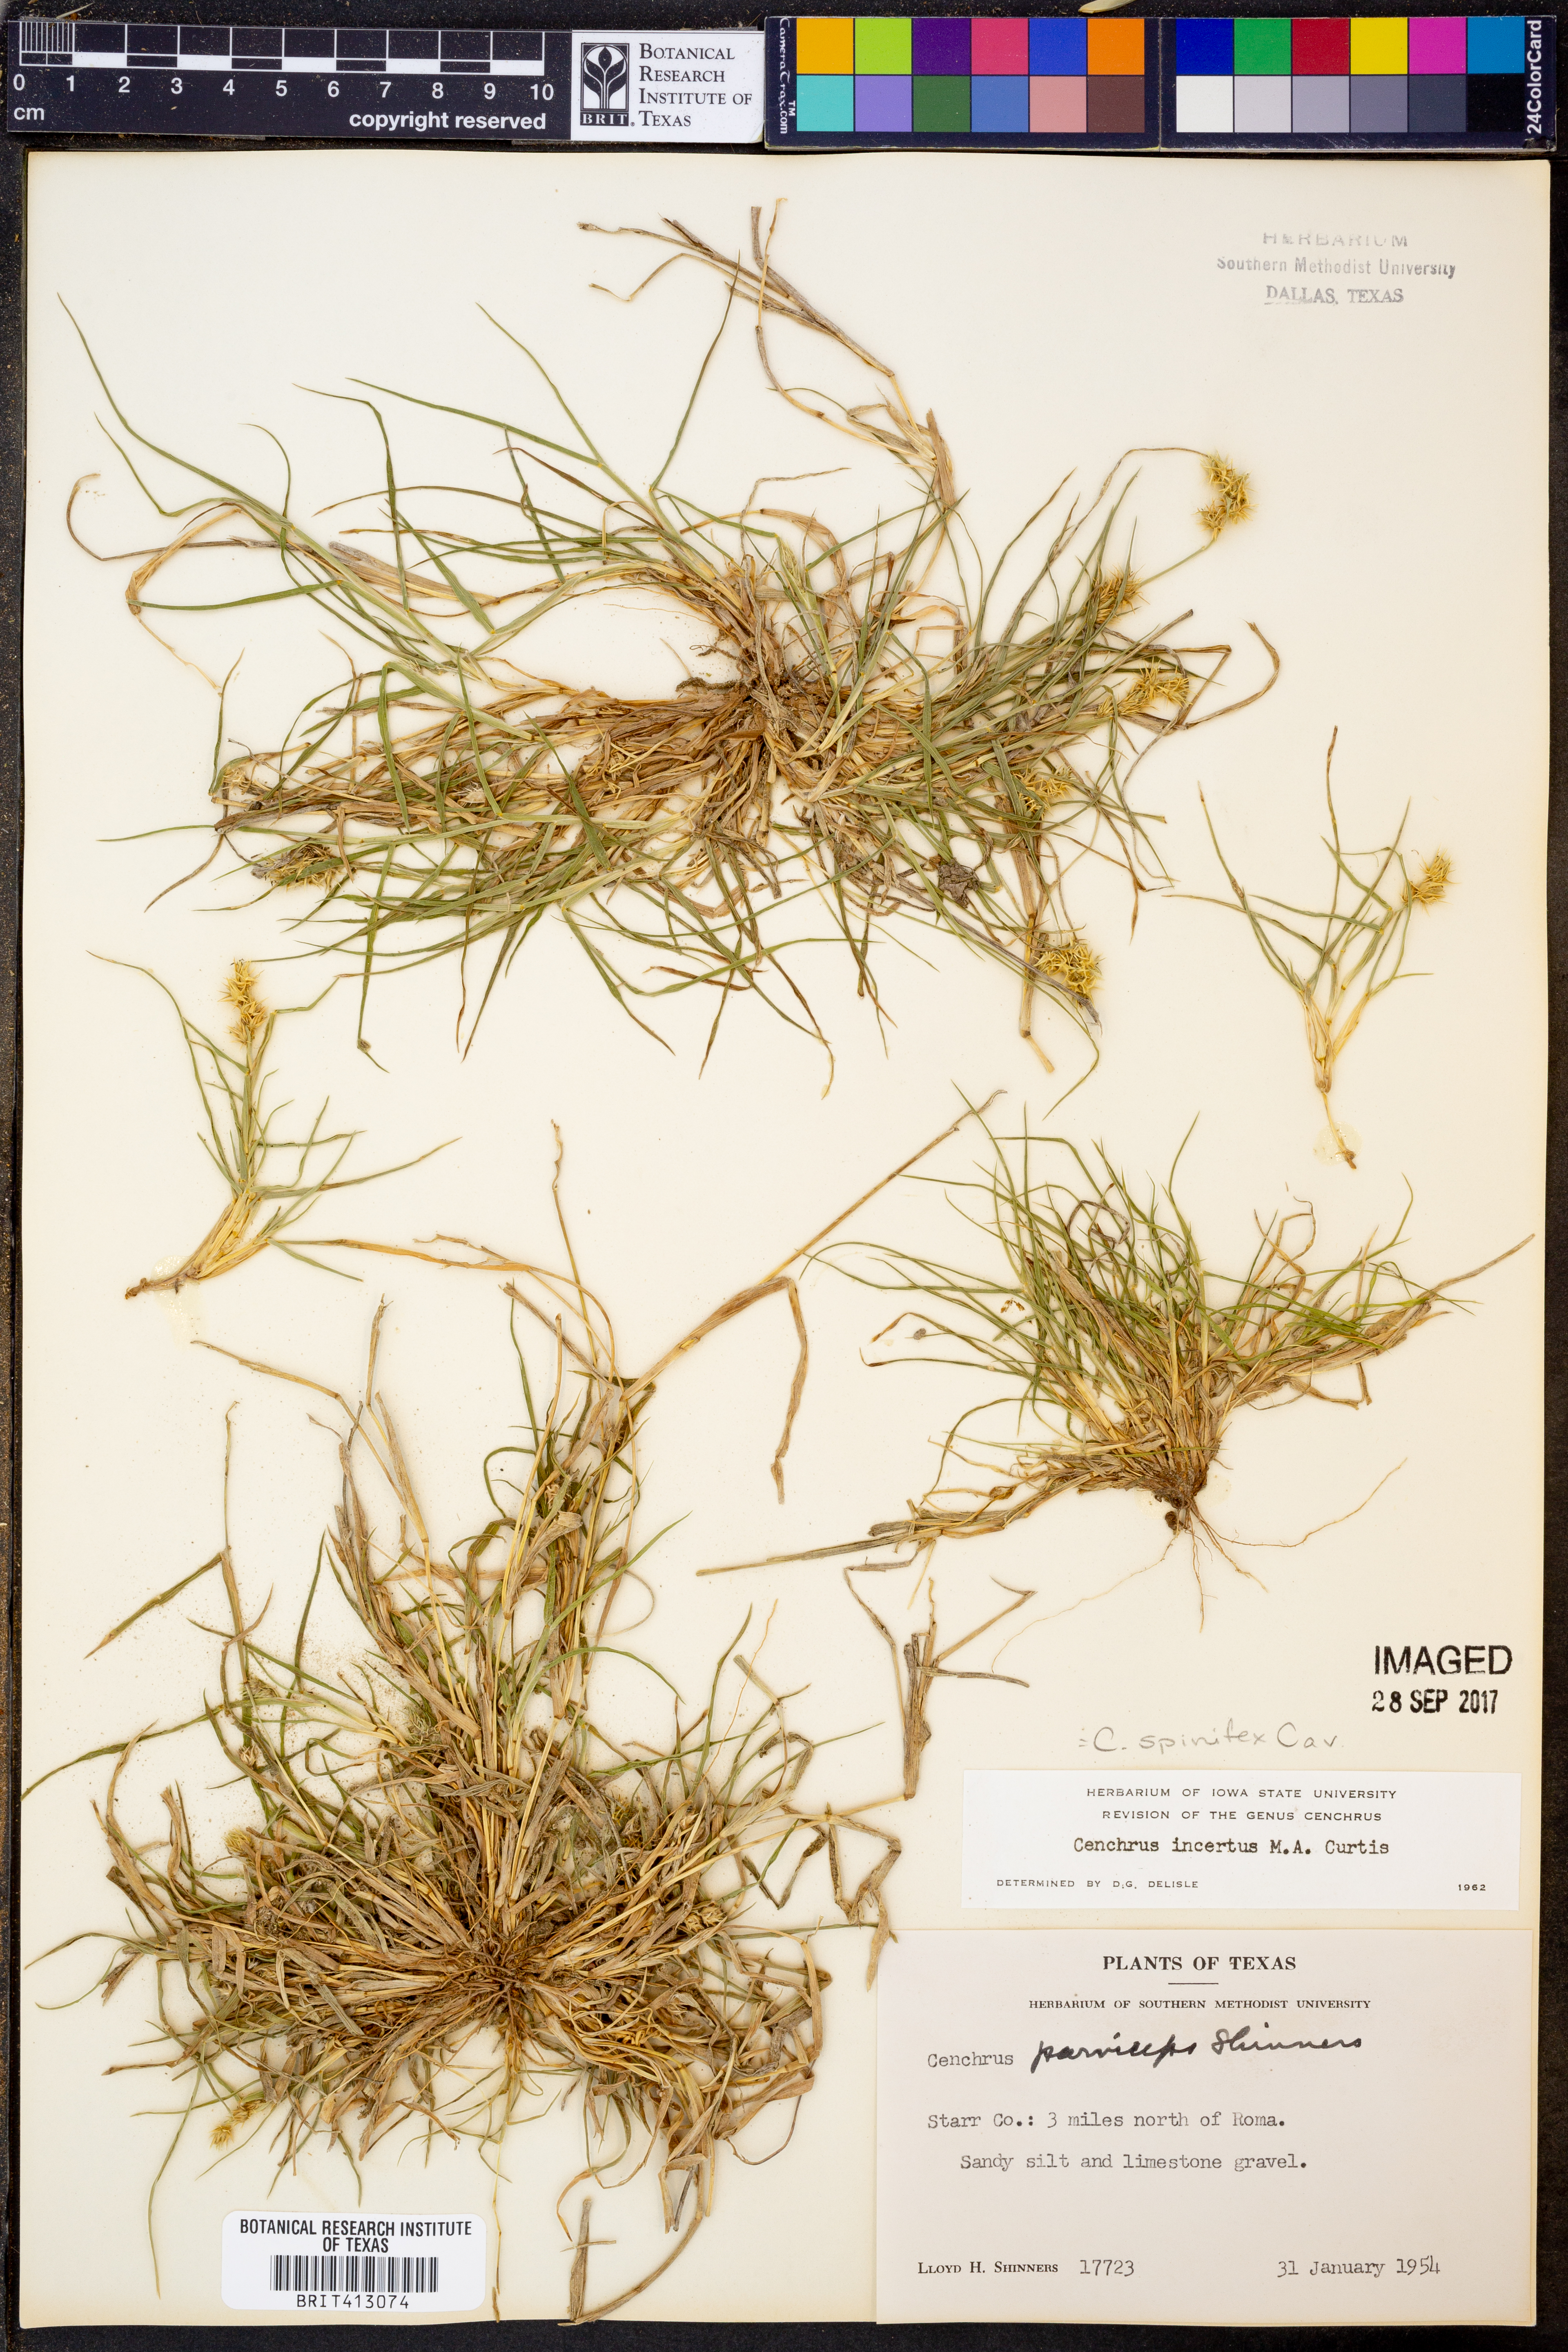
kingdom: Plantae
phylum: Tracheophyta
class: Liliopsida
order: Poales
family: Poaceae
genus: Cenchrus
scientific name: Cenchrus spinifex
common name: Coast sandbur
